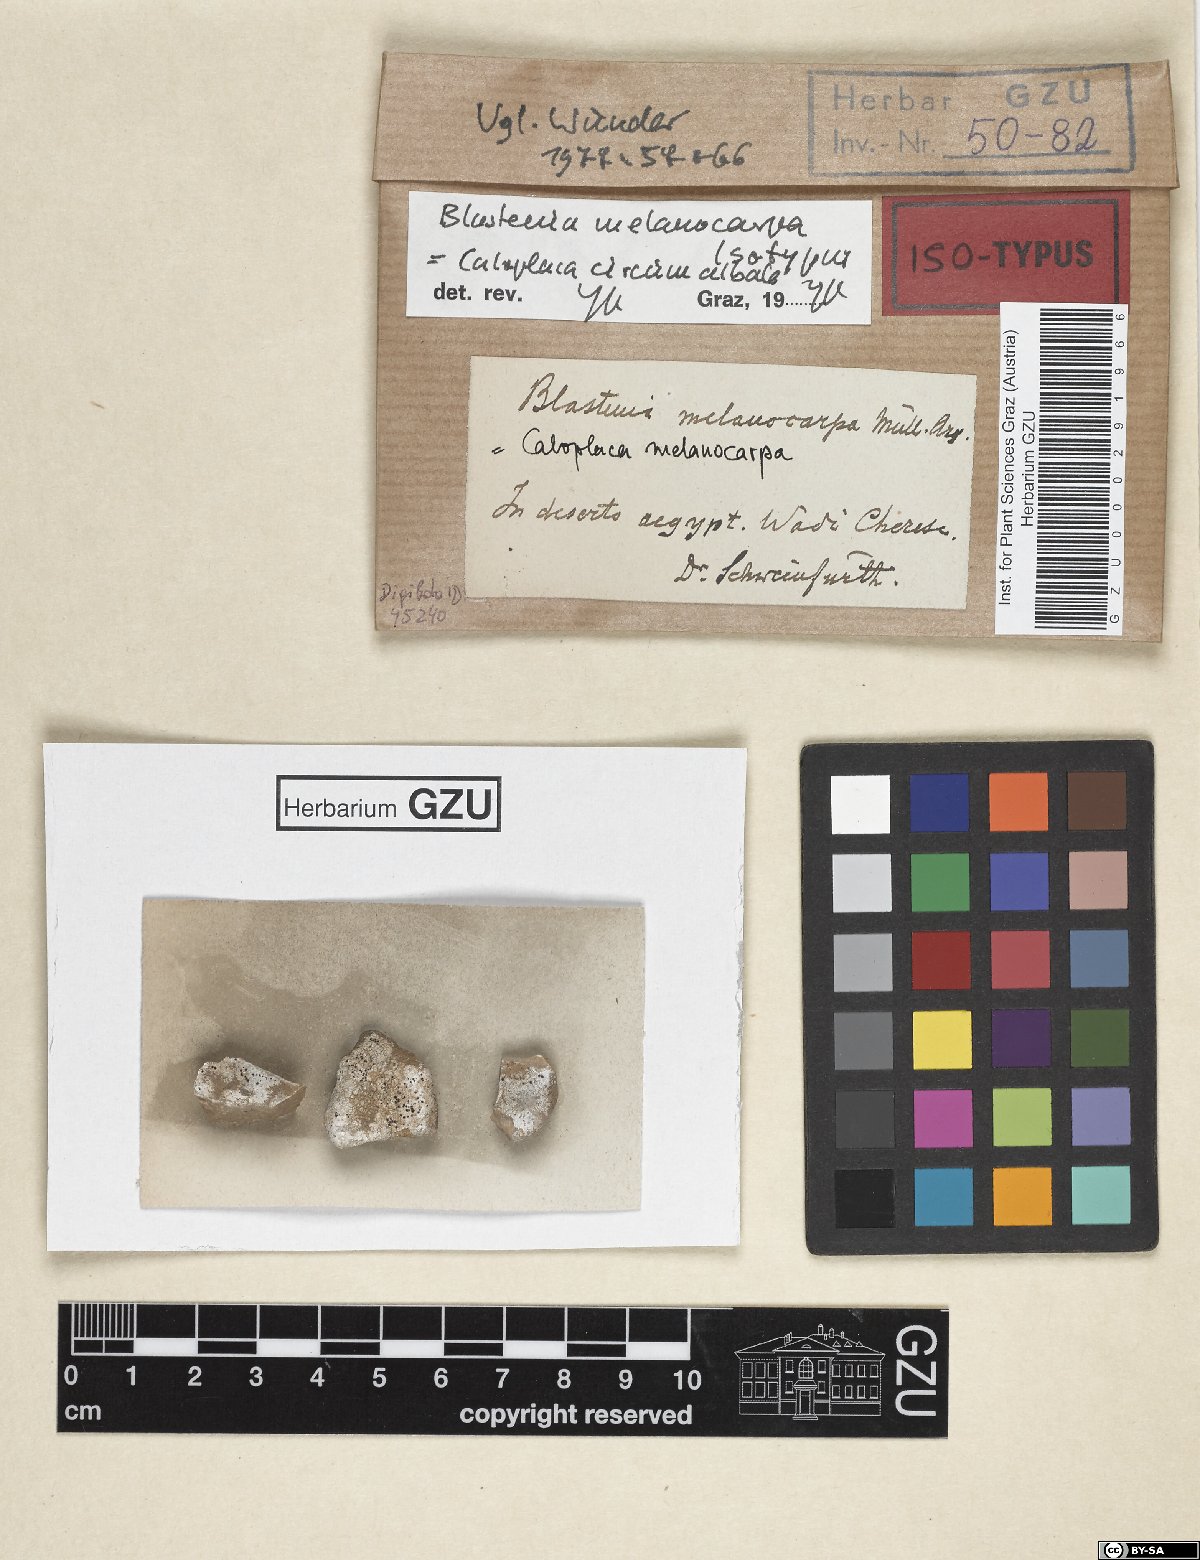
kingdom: Fungi
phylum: Ascomycota
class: Lecanoromycetes
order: Teloschistales
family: Teloschistaceae
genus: Blastenia
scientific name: Blastenia
